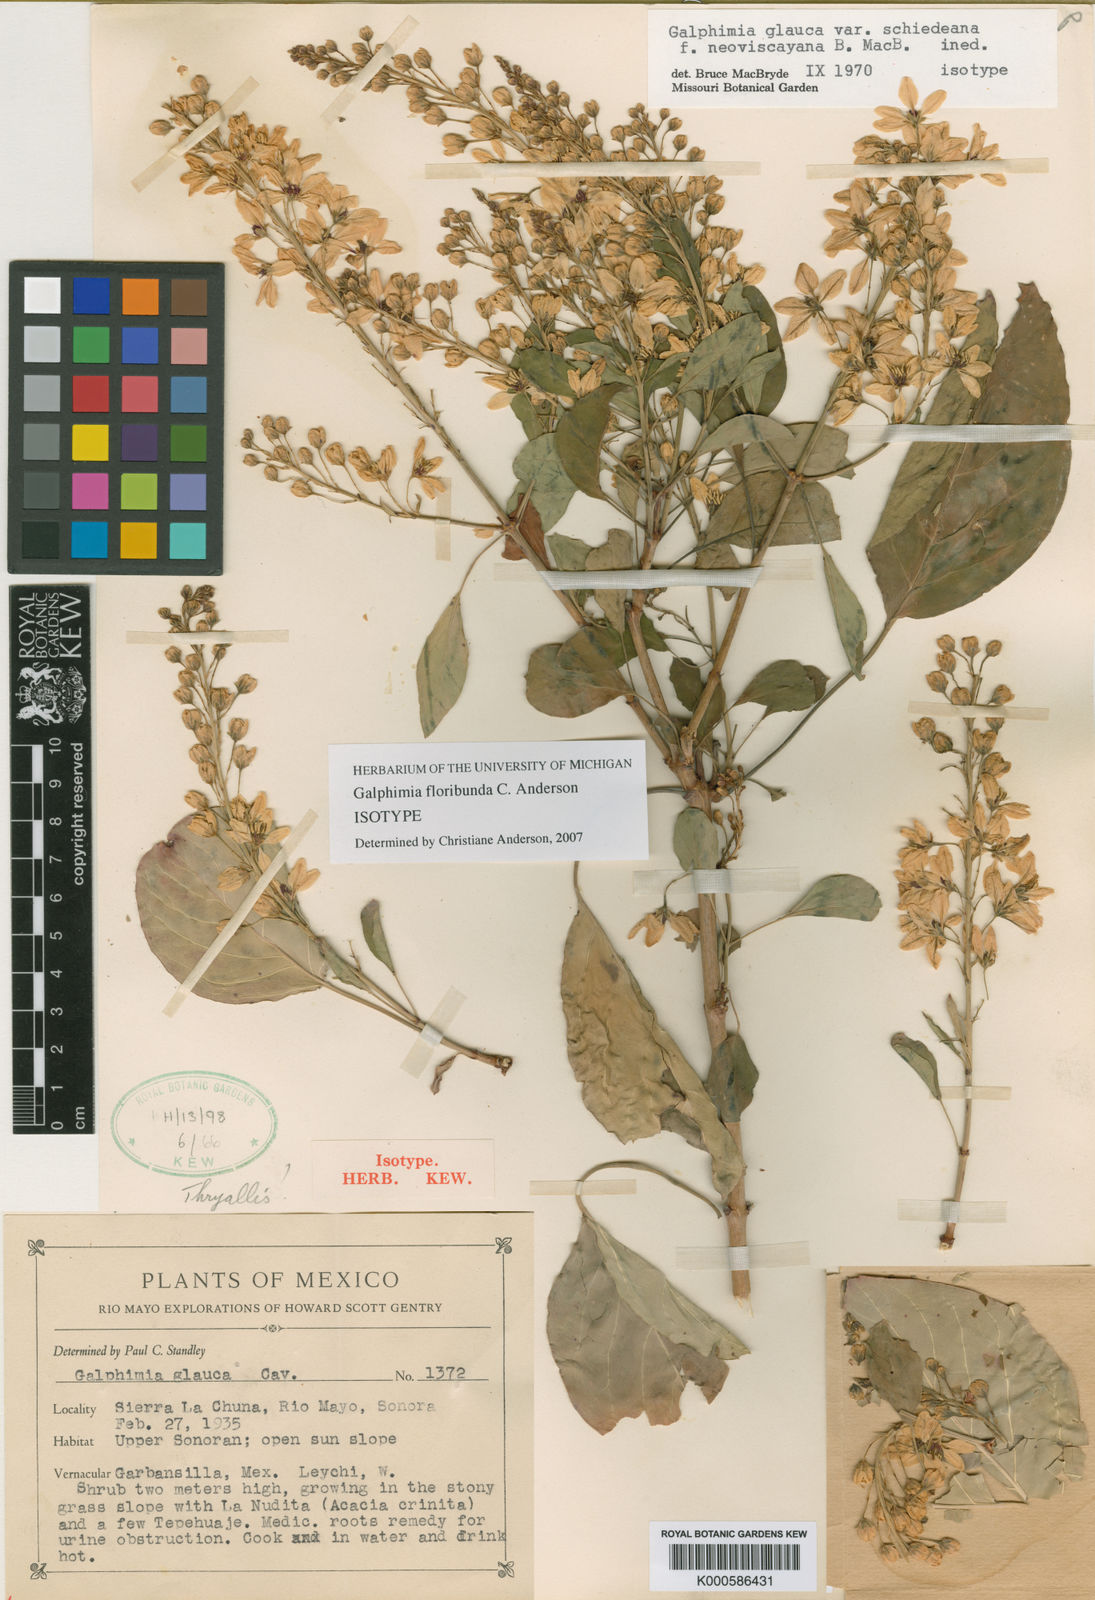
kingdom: Plantae
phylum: Tracheophyta
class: Magnoliopsida
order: Malpighiales
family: Malpighiaceae
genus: Galphimia
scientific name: Galphimia glauca
